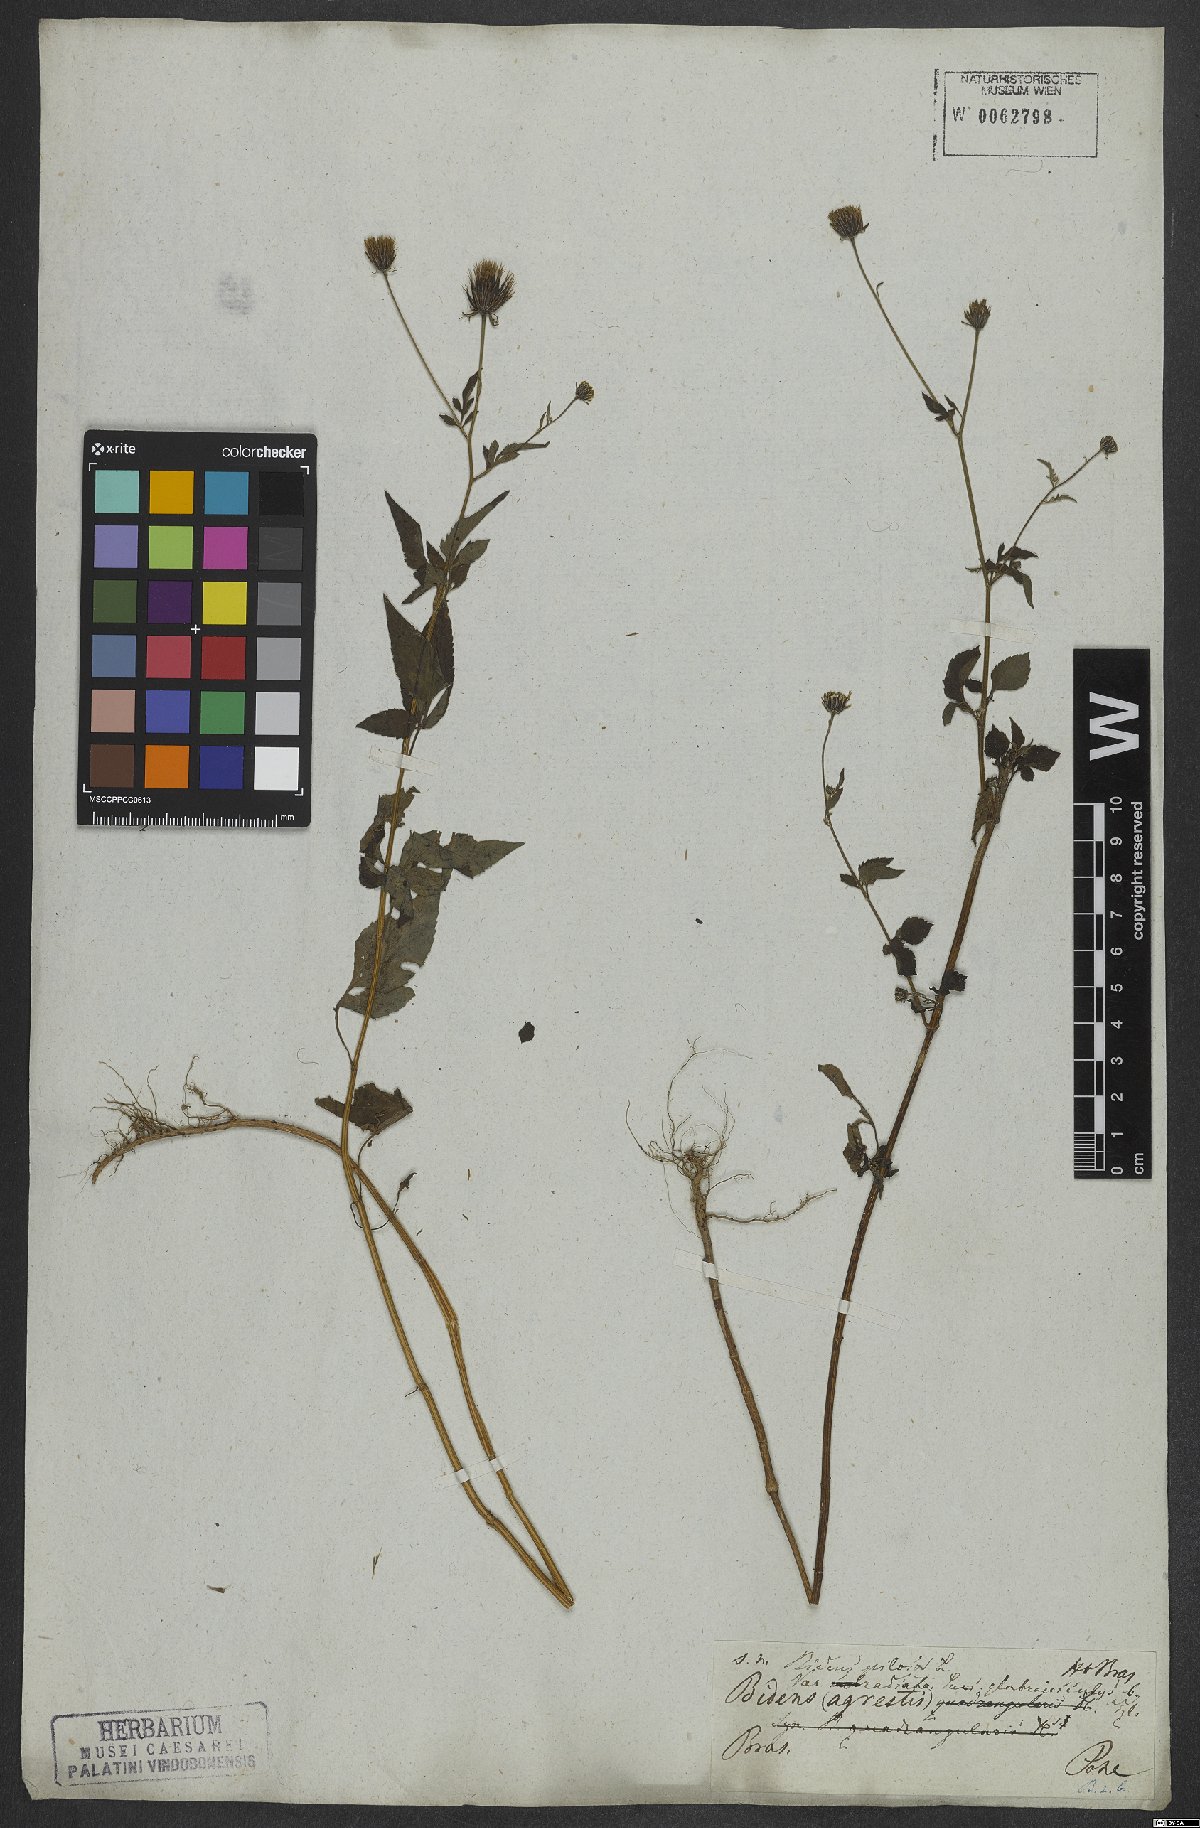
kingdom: Plantae
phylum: Tracheophyta
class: Magnoliopsida
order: Asterales
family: Asteraceae
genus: Bidens
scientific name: Bidens pilosa
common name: Black-jack
